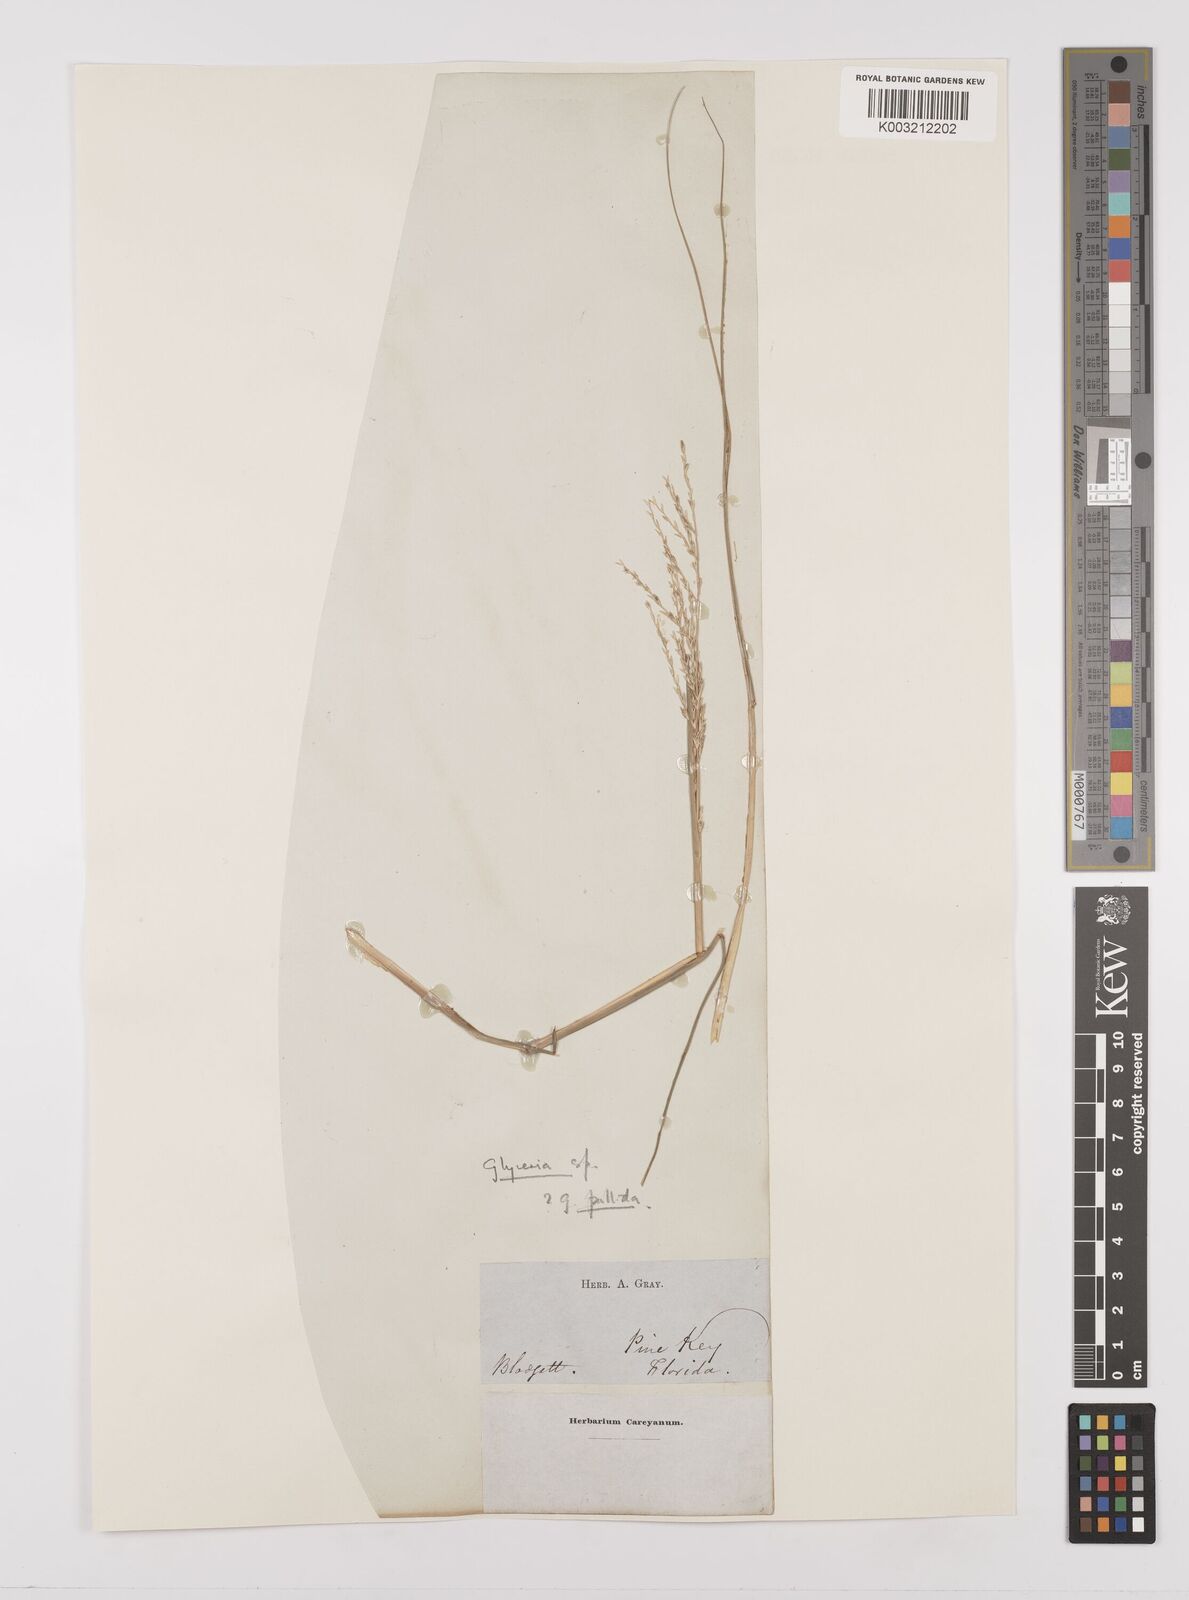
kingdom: Plantae
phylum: Tracheophyta
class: Liliopsida
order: Poales
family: Poaceae
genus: Glyceria
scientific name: Glyceria
